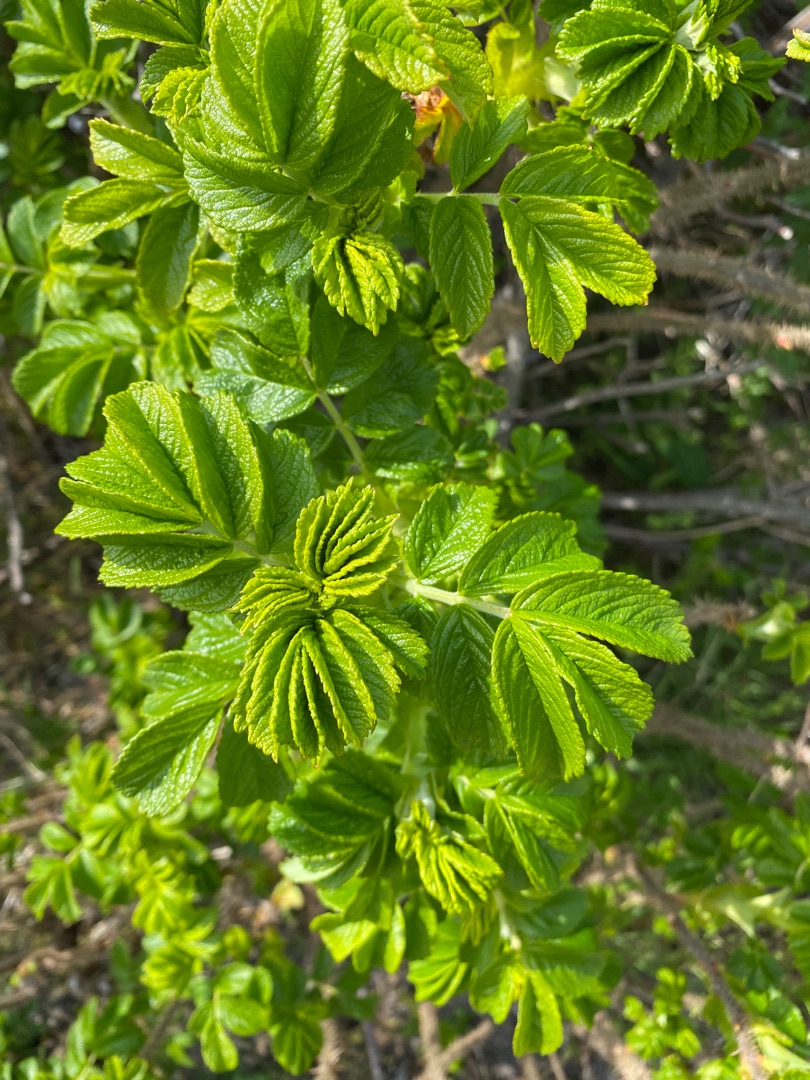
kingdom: Plantae
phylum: Tracheophyta
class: Magnoliopsida
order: Rosales
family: Rosaceae
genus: Rosa
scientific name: Rosa rugosa
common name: Rynket rose
